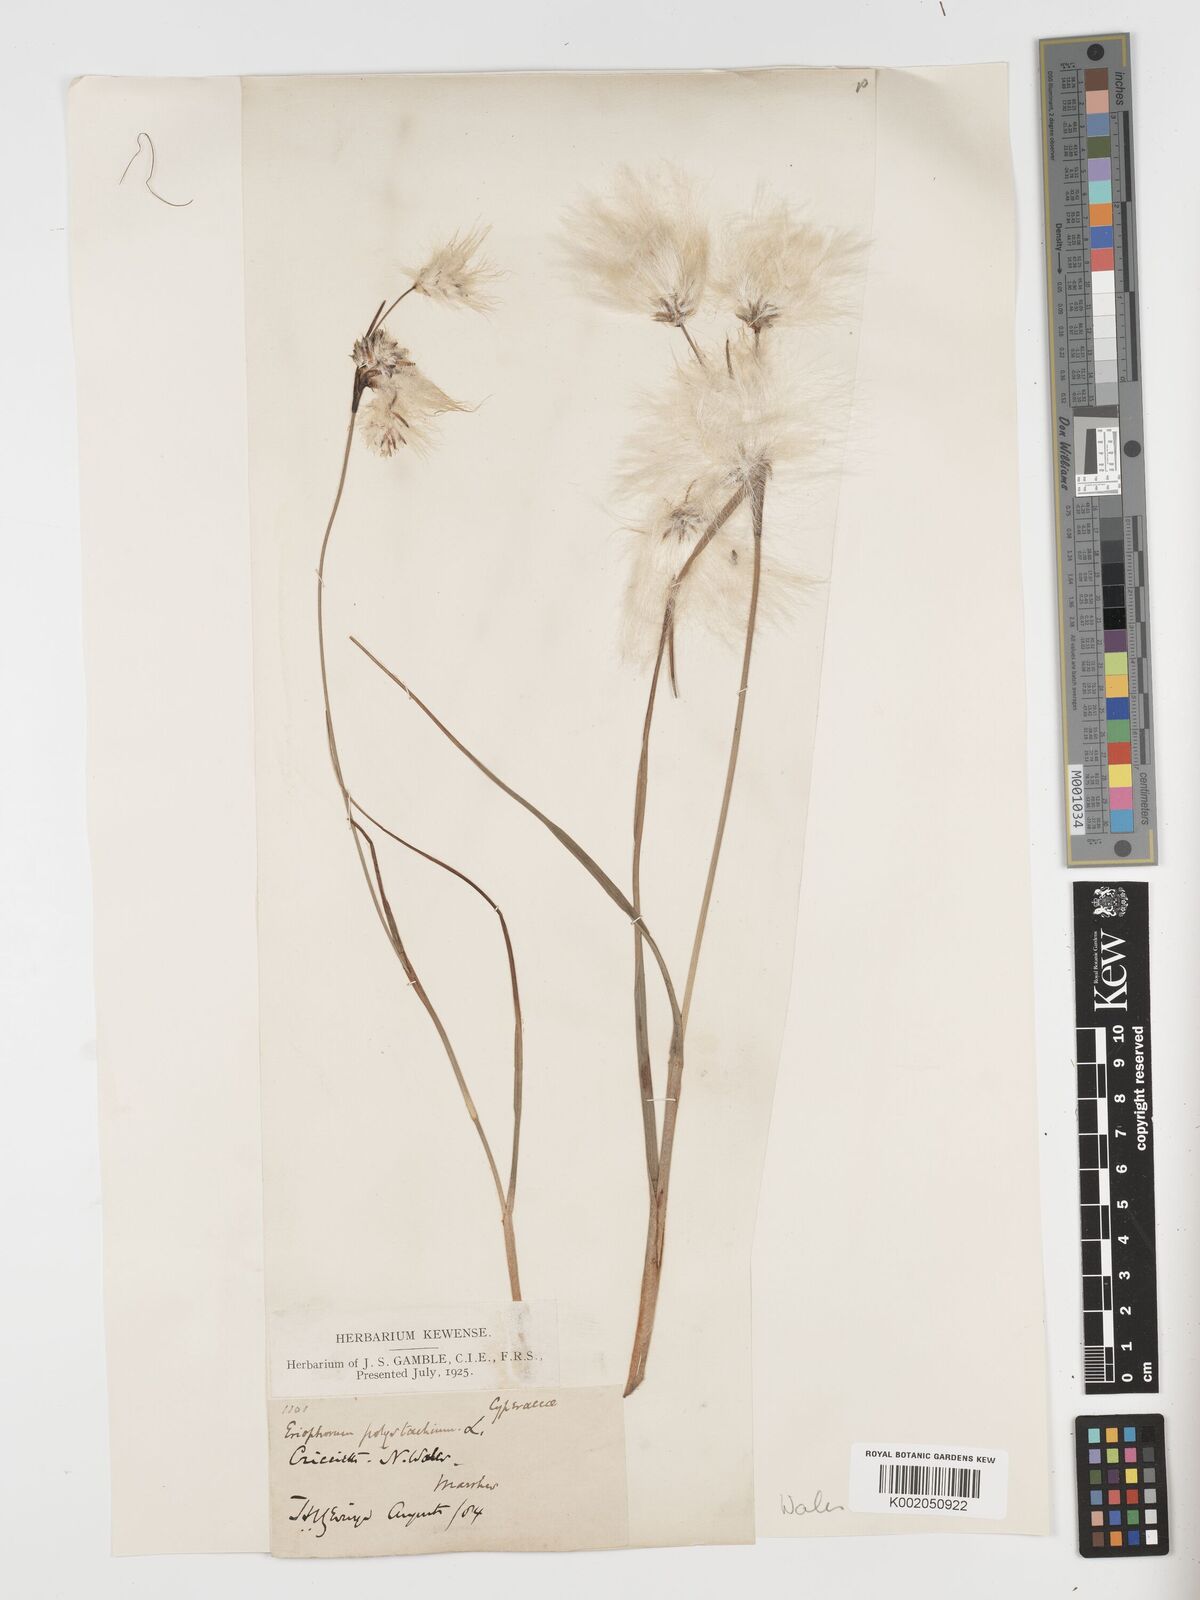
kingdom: Plantae
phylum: Tracheophyta
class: Liliopsida
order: Poales
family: Cyperaceae
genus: Eriophorum
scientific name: Eriophorum angustifolium
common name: Common cottongrass
